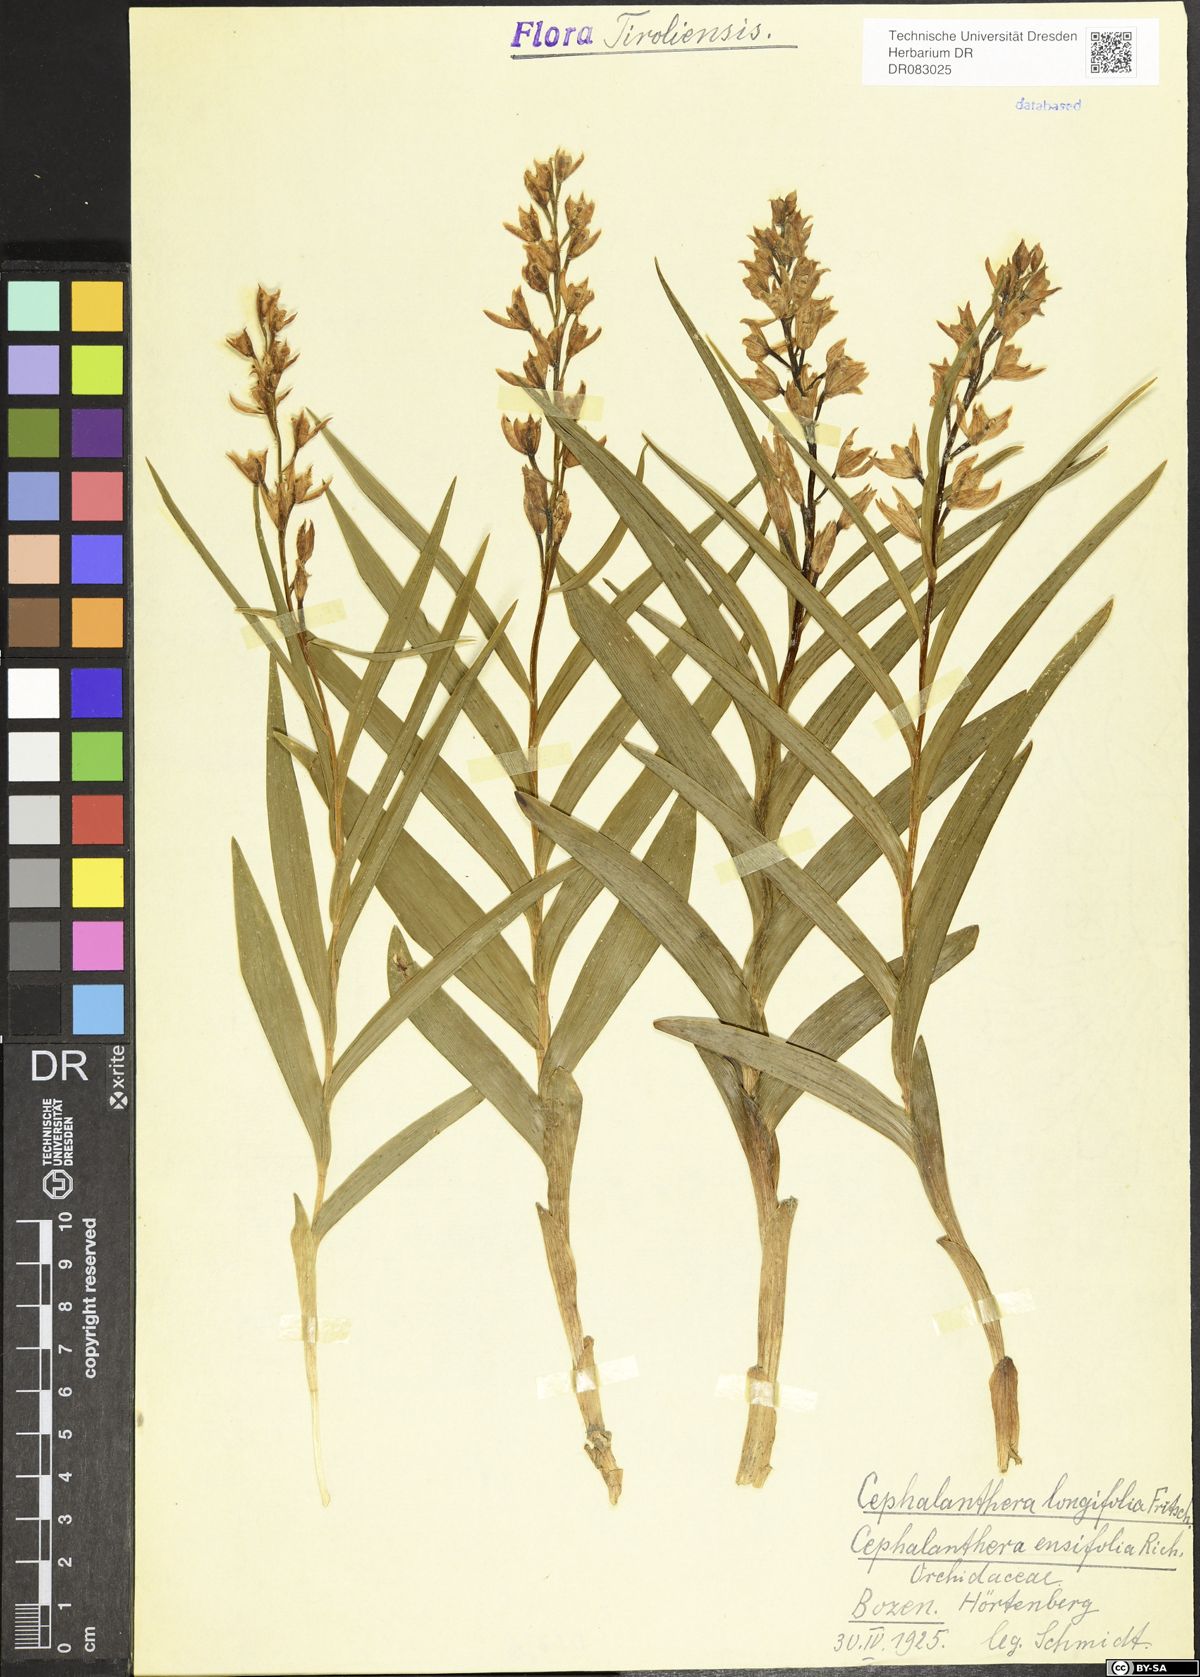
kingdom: Plantae
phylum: Tracheophyta
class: Liliopsida
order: Asparagales
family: Orchidaceae
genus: Cephalanthera
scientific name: Cephalanthera longifolia
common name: Narrow-leaved helleborine
